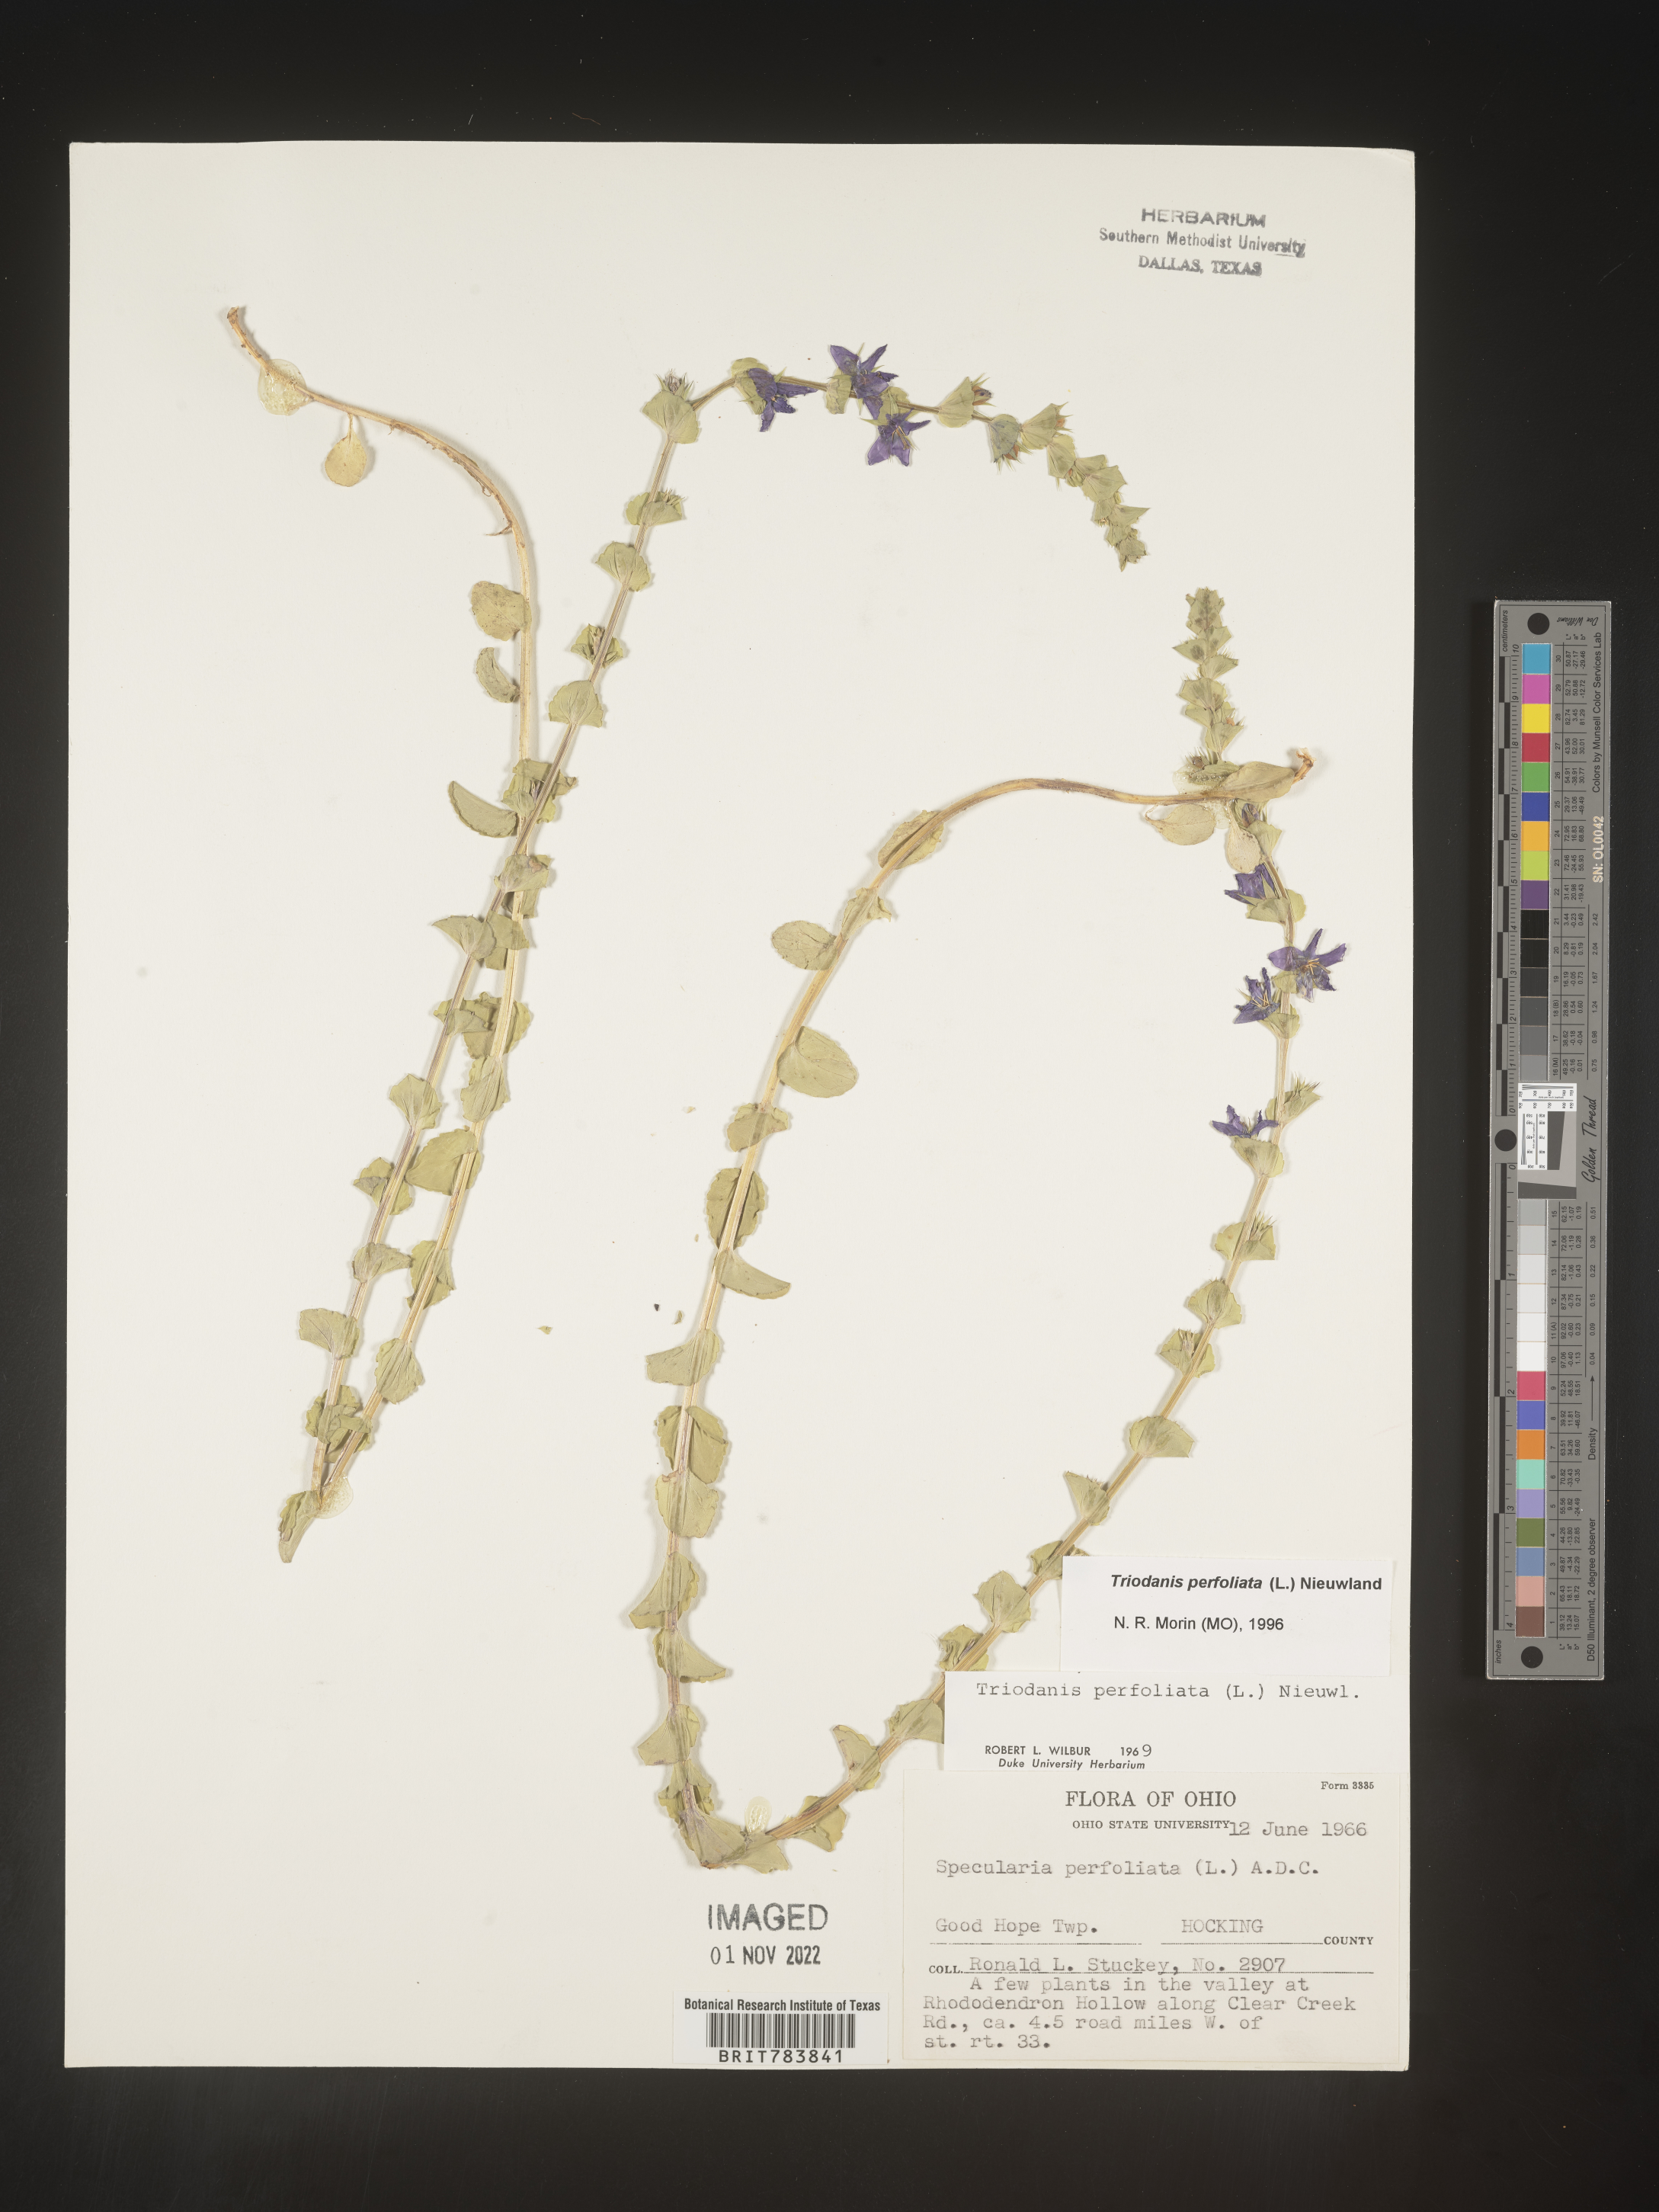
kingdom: Plantae
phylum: Tracheophyta
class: Magnoliopsida
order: Asterales
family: Campanulaceae
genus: Triodanis
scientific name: Triodanis perfoliata
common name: Clasping venus' looking-glass
